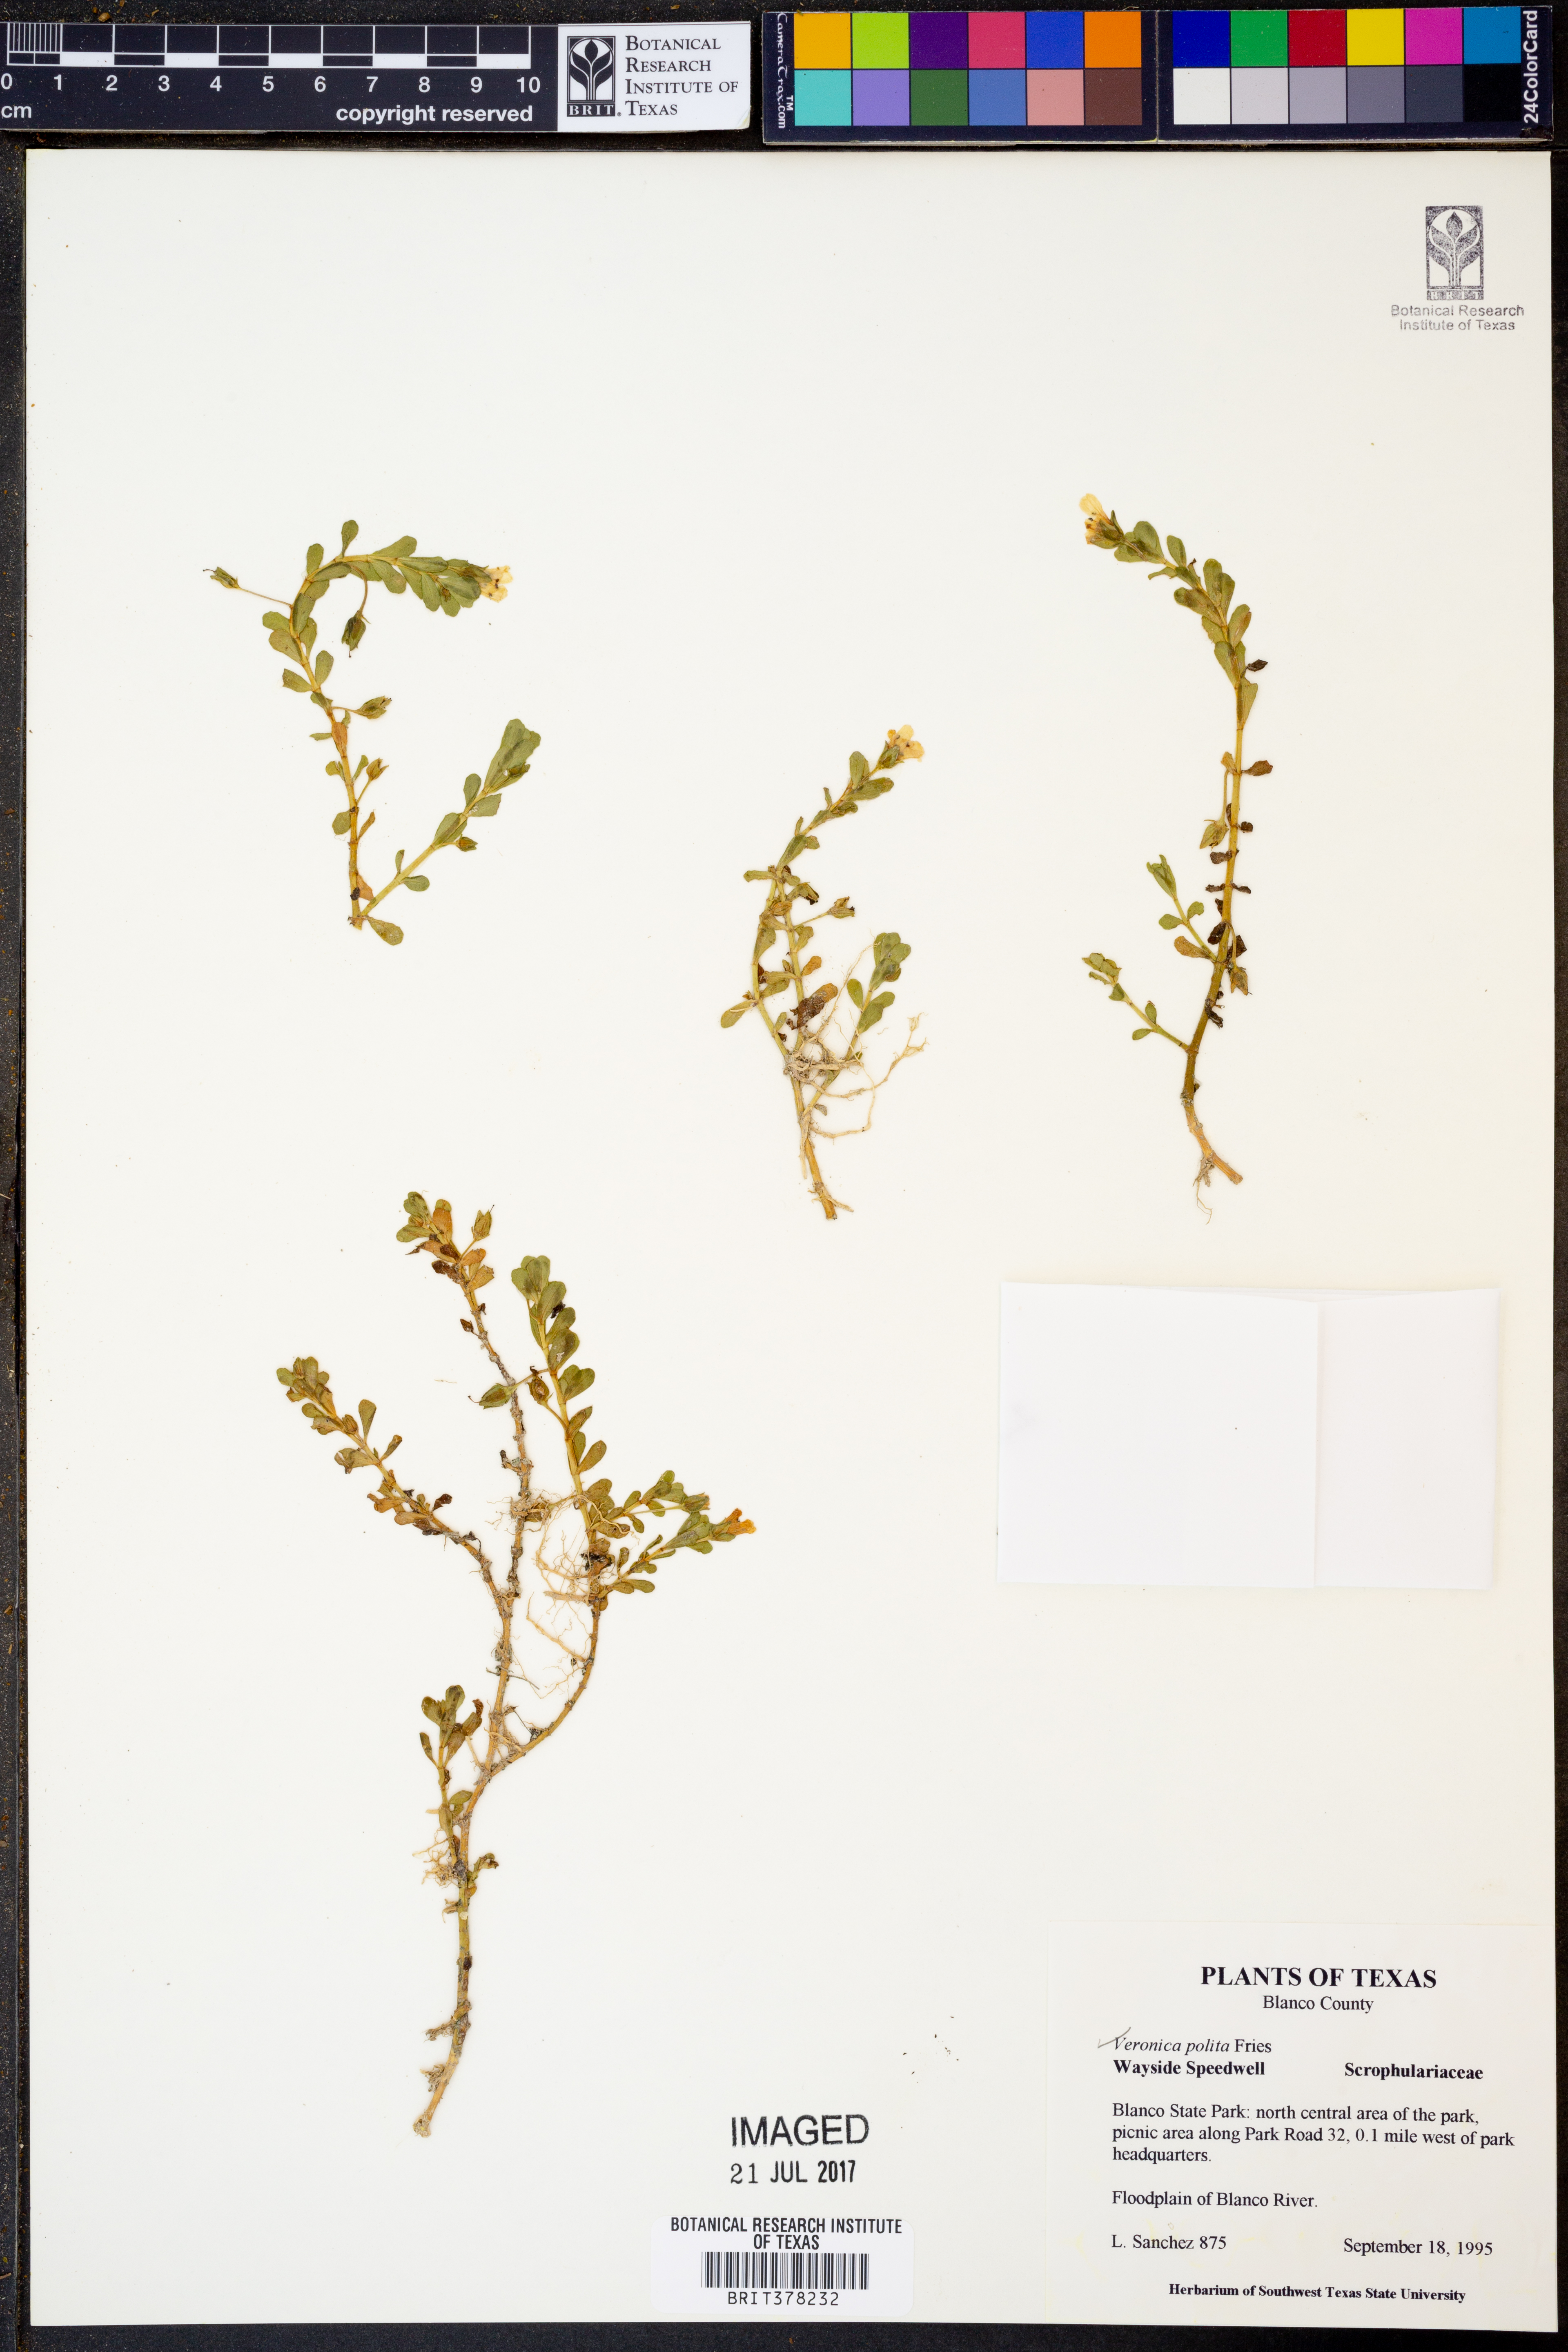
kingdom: Plantae
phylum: Tracheophyta
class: Magnoliopsida
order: Lamiales
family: Plantaginaceae
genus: Veronica
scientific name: Veronica polita
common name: Grey field-speedwell
